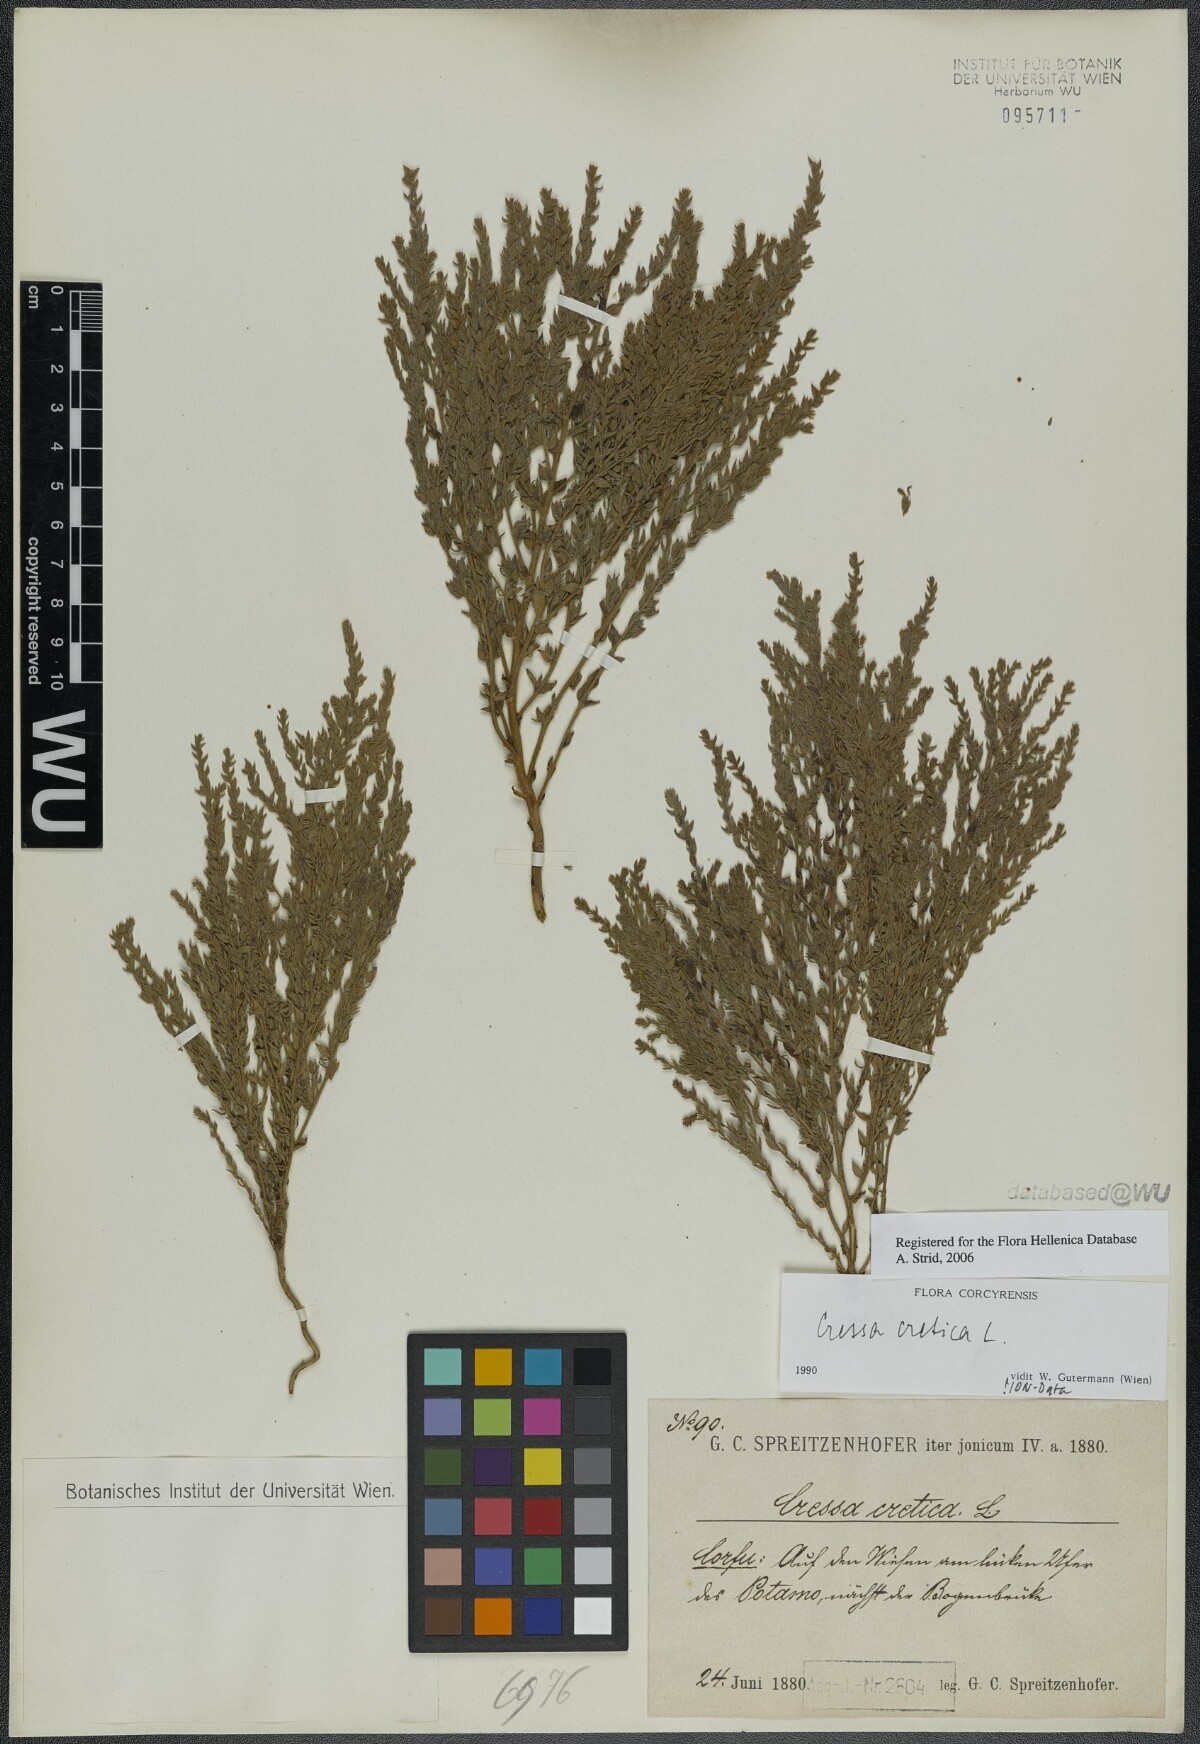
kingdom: Plantae
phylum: Tracheophyta
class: Magnoliopsida
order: Solanales
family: Convolvulaceae
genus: Cressa
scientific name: Cressa cretica
